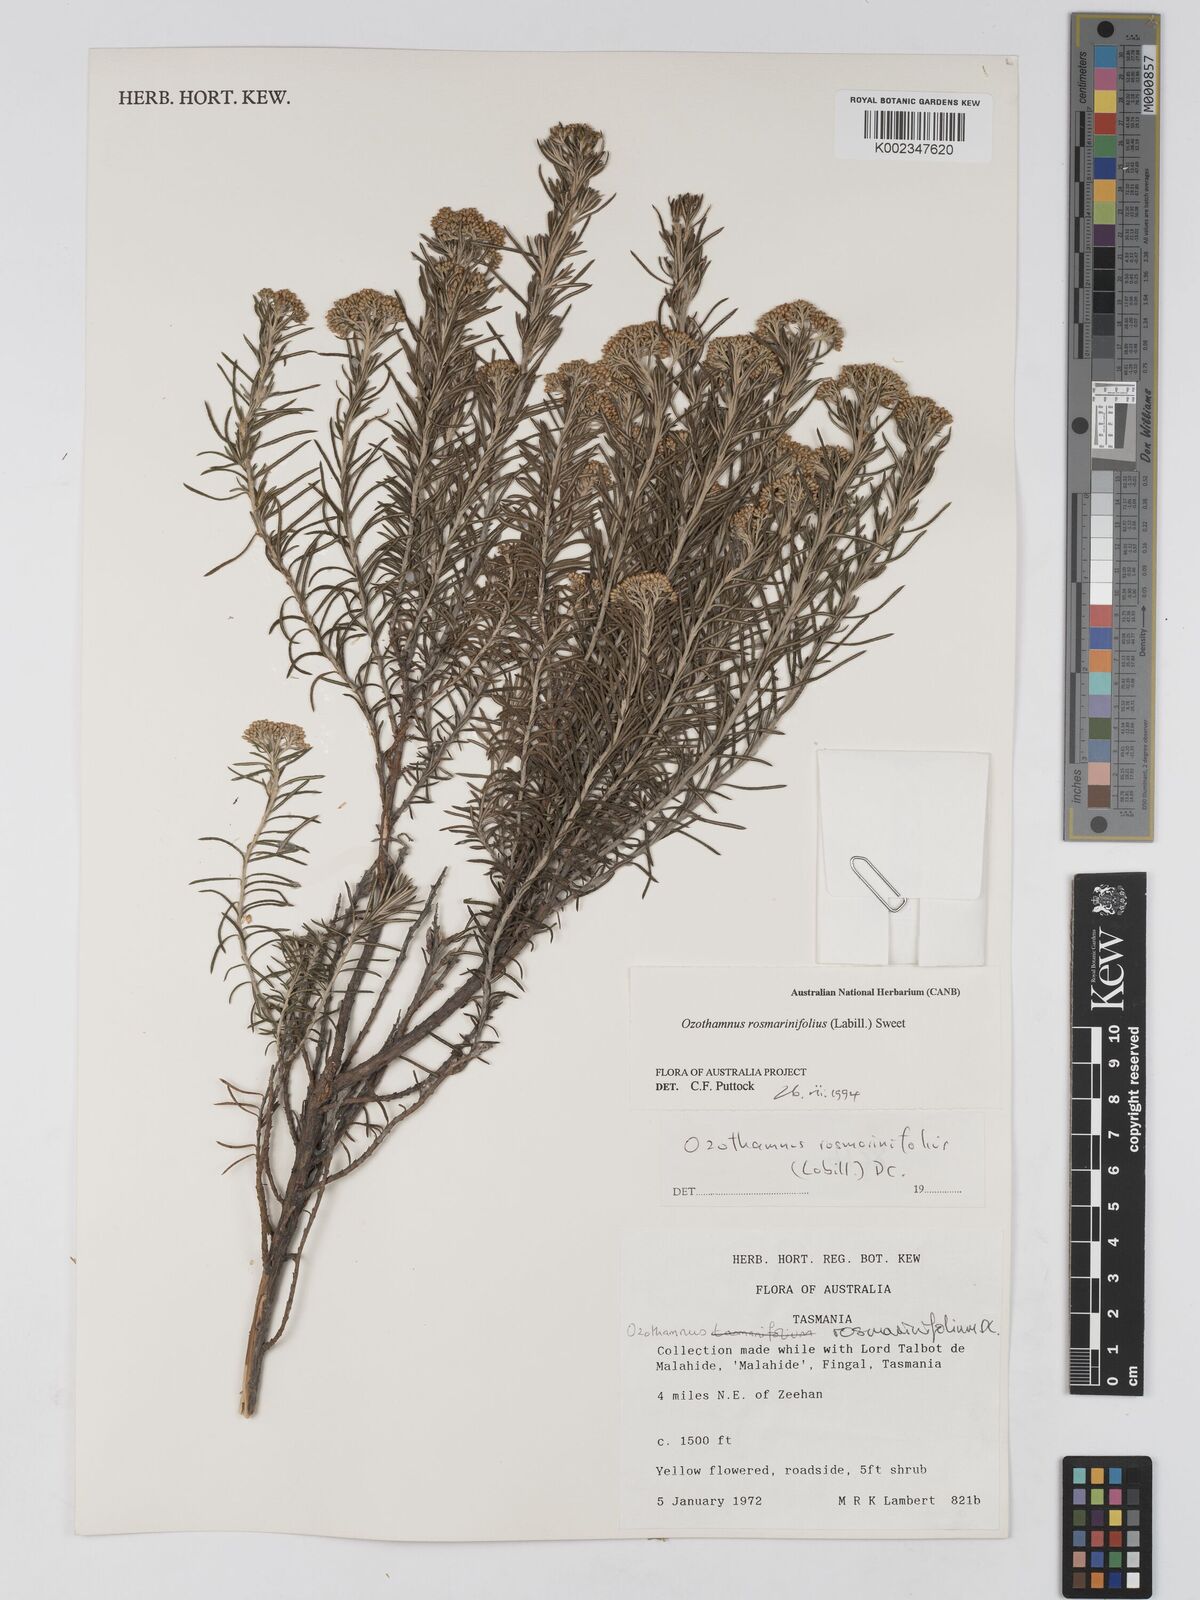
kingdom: Plantae
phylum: Tracheophyta
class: Magnoliopsida
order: Asterales
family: Asteraceae
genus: Ozothamnus
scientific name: Ozothamnus rosmarinifolius
